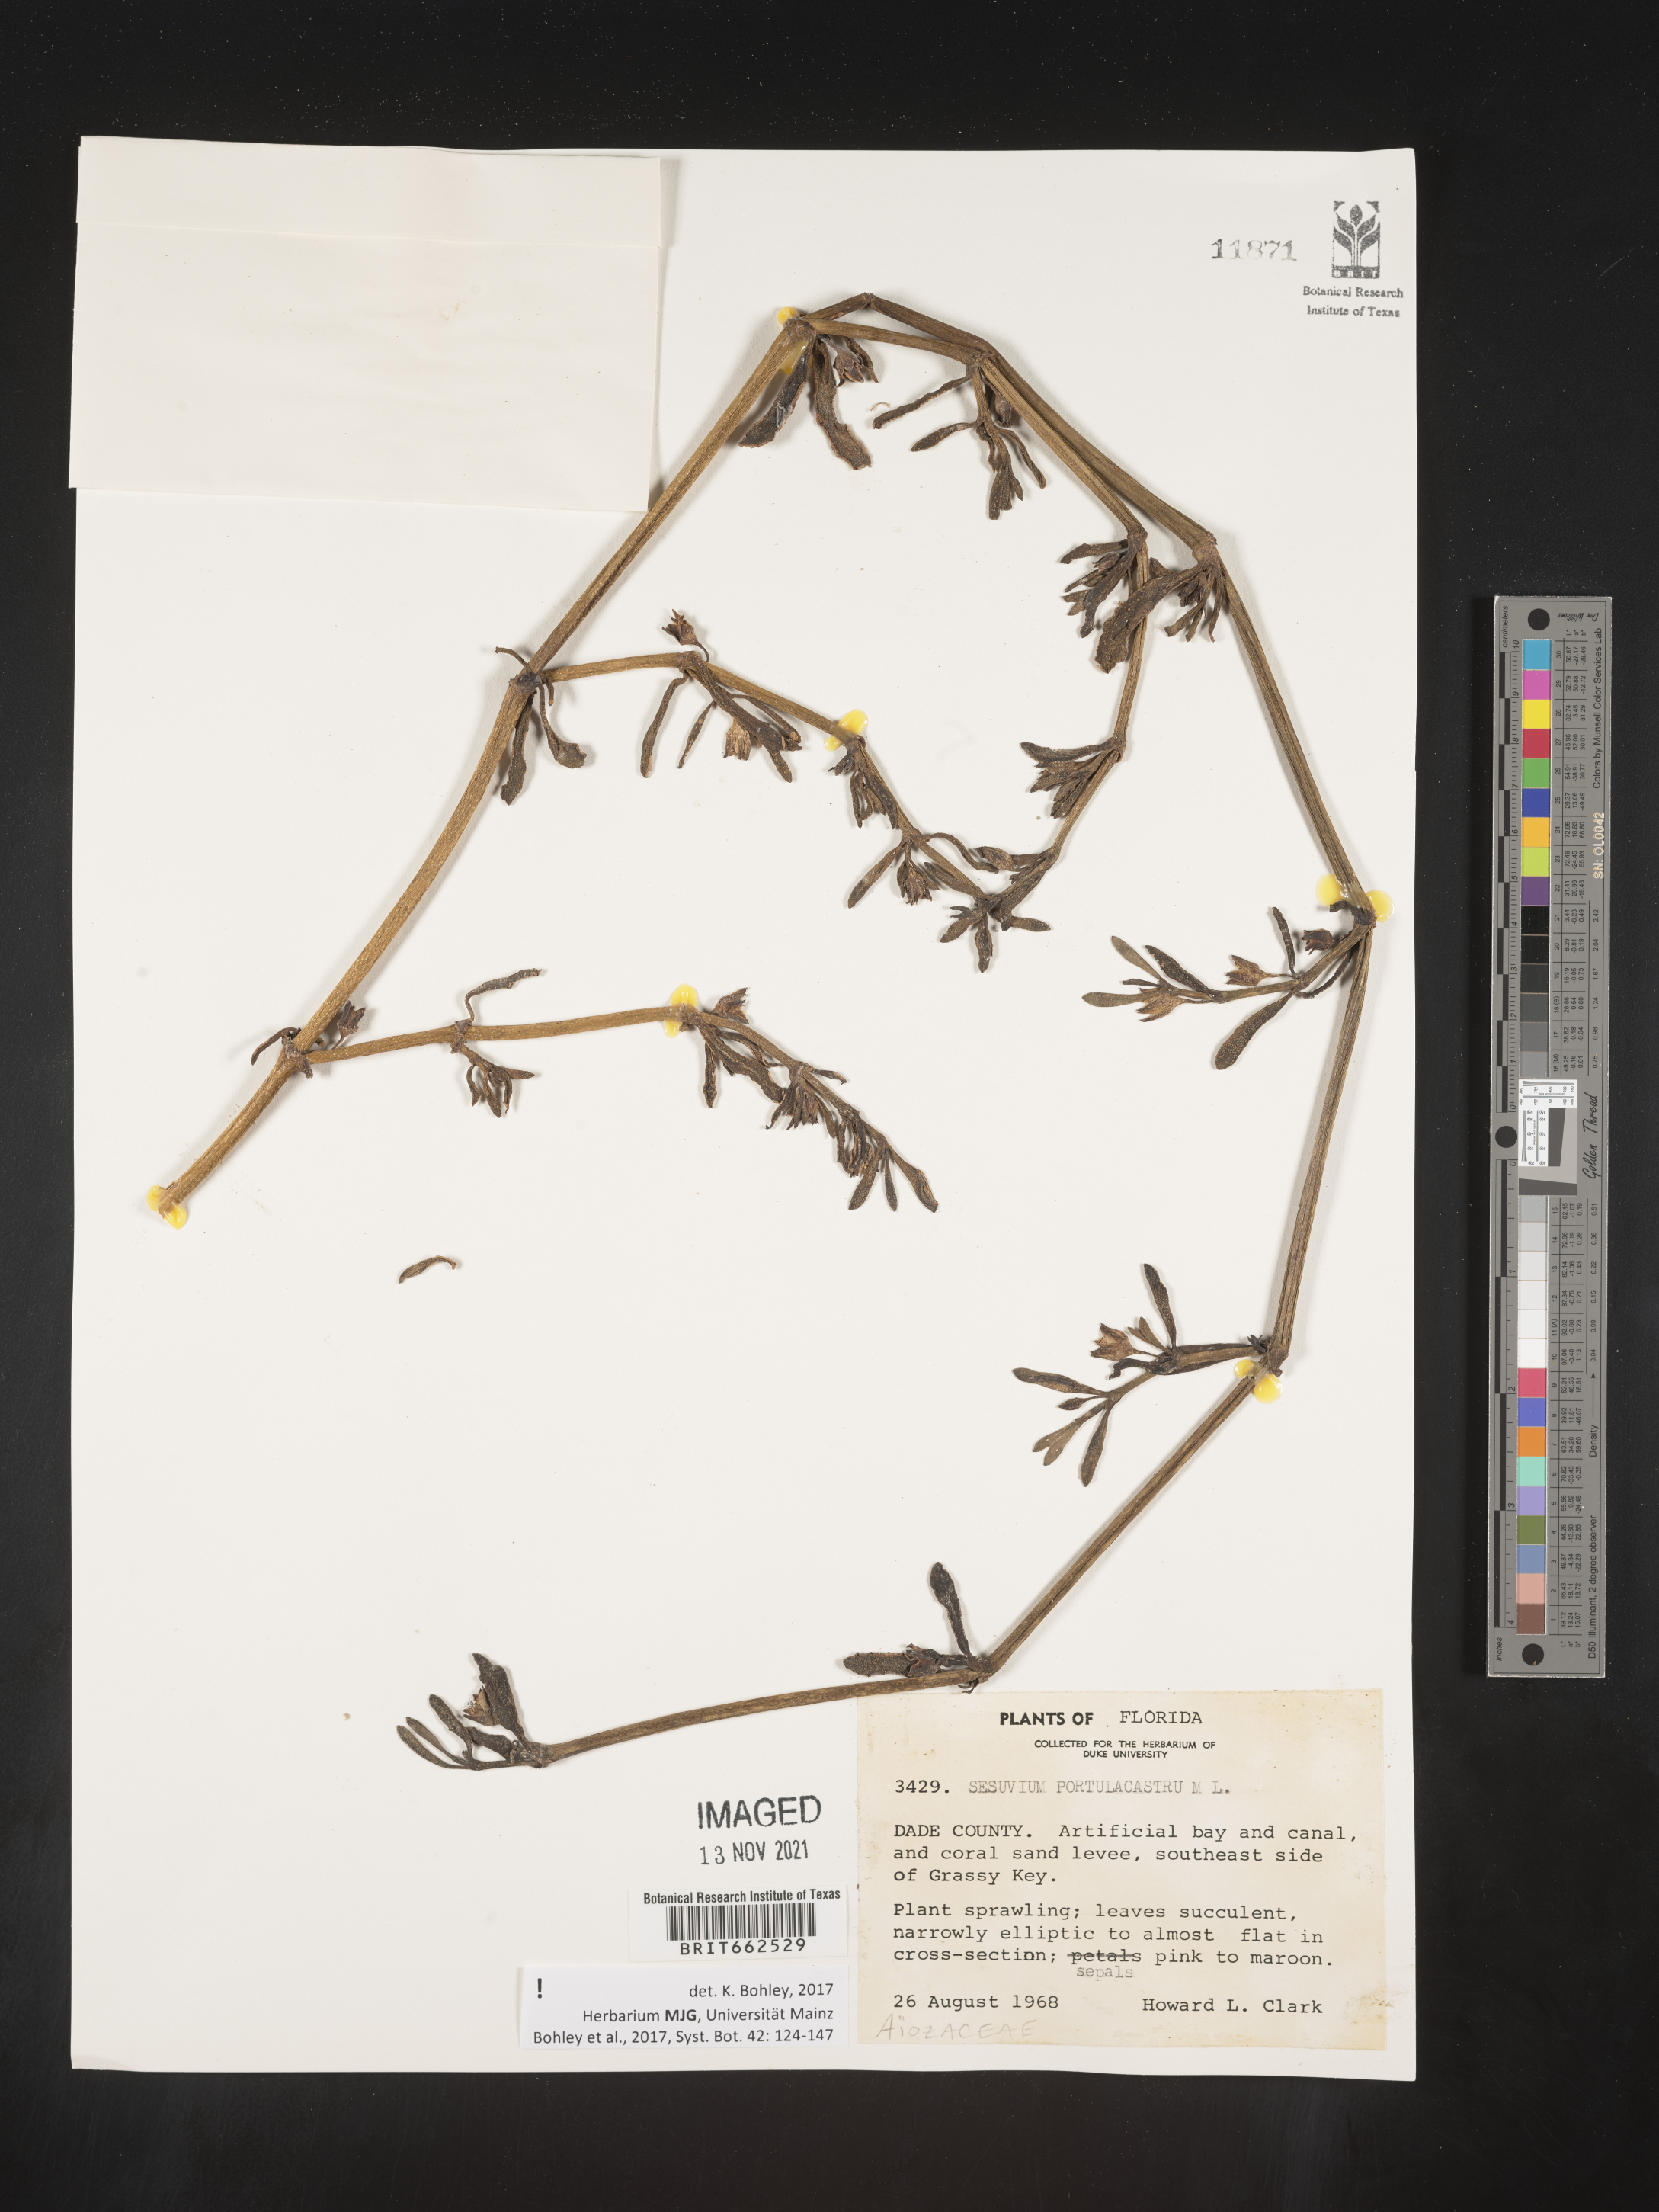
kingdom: Plantae
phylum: Tracheophyta
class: Magnoliopsida
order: Caryophyllales
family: Aizoaceae
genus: Sesuvium
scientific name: Sesuvium portulacastrum
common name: Sea-purslane
